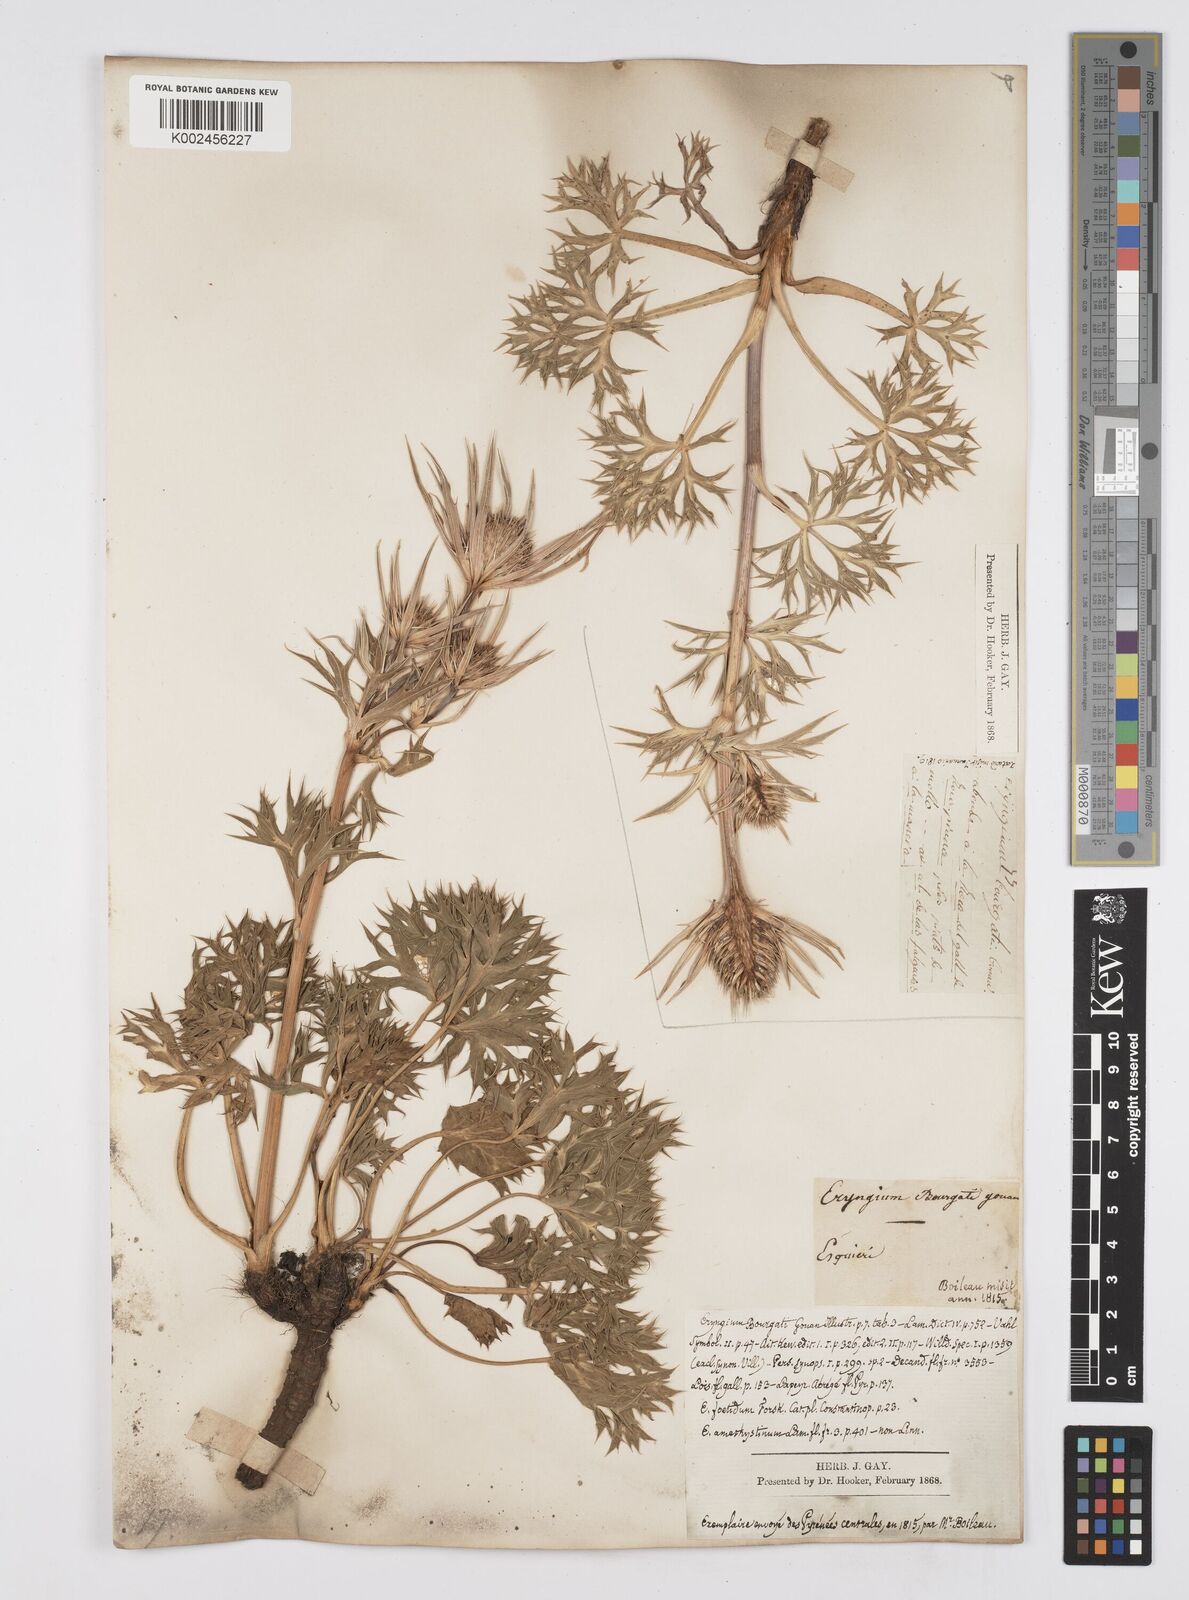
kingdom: Plantae
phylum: Tracheophyta
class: Magnoliopsida
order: Apiales
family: Apiaceae
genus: Eryngium
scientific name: Eryngium bourgatii
